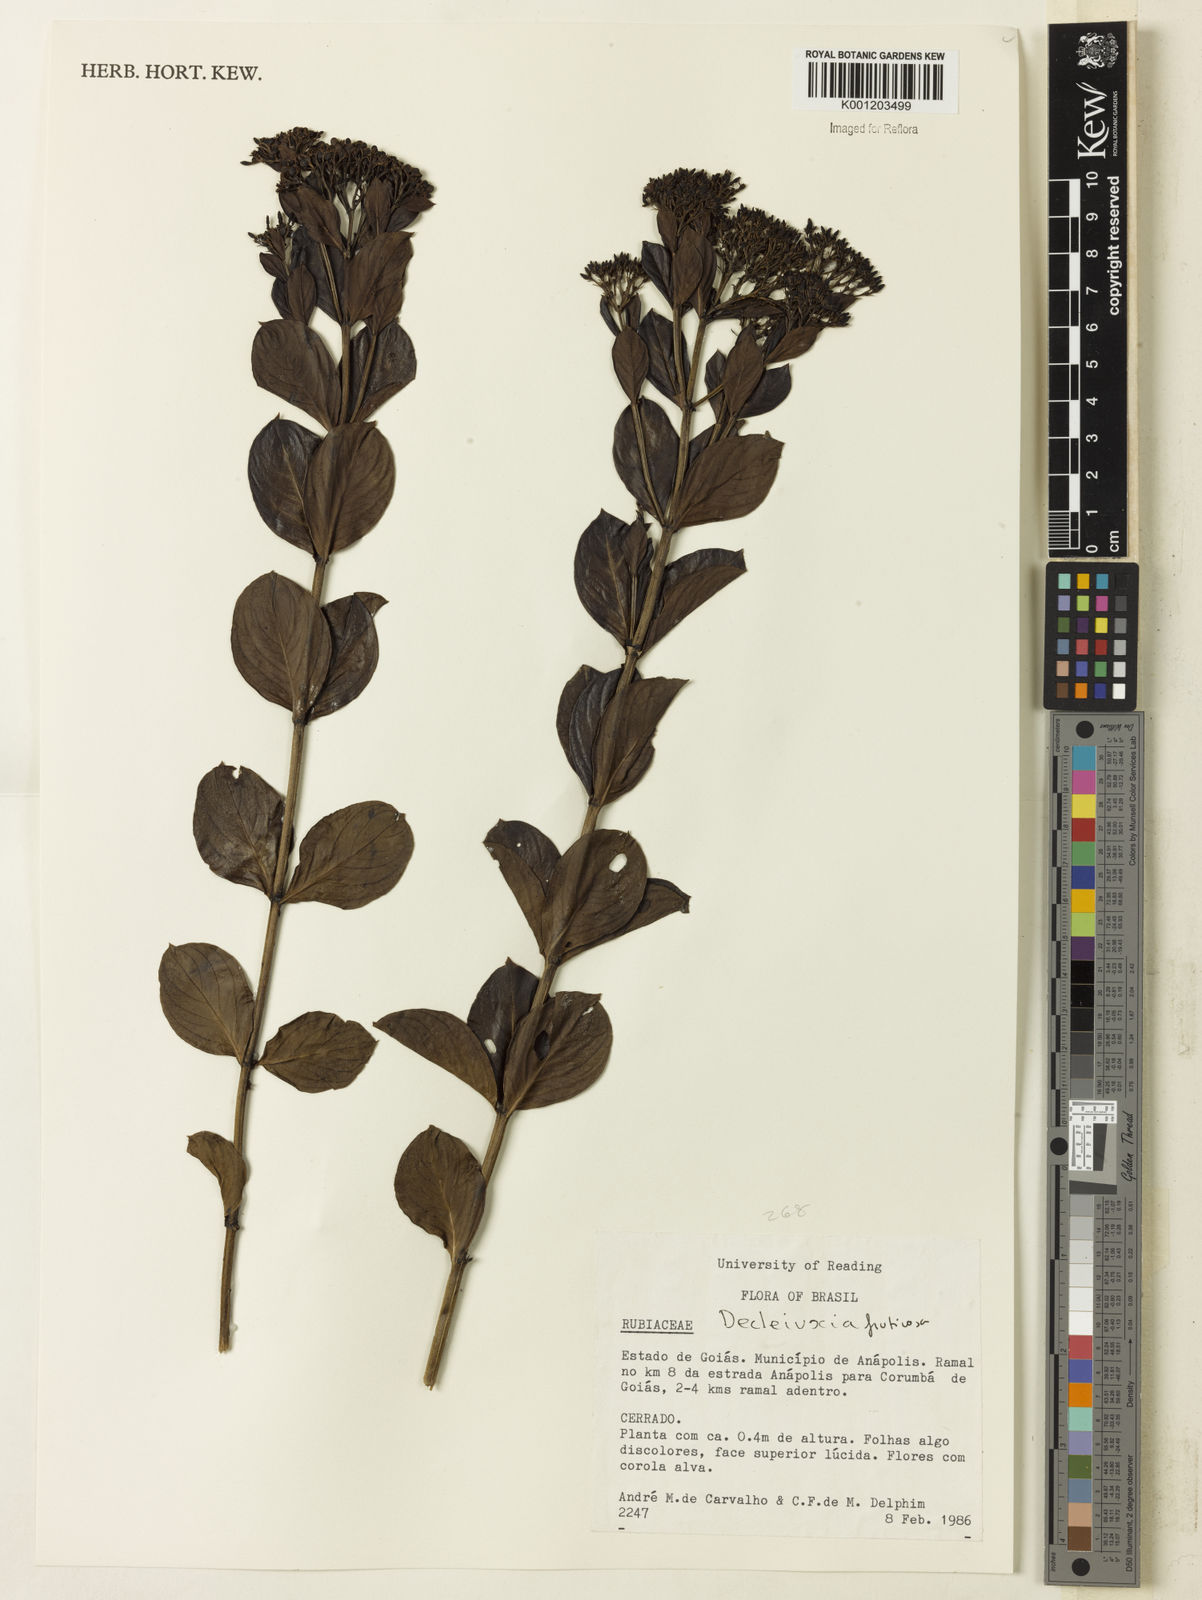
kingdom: Plantae
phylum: Tracheophyta
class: Magnoliopsida
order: Gentianales
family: Rubiaceae
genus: Declieuxia
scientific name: Declieuxia fruticosa
